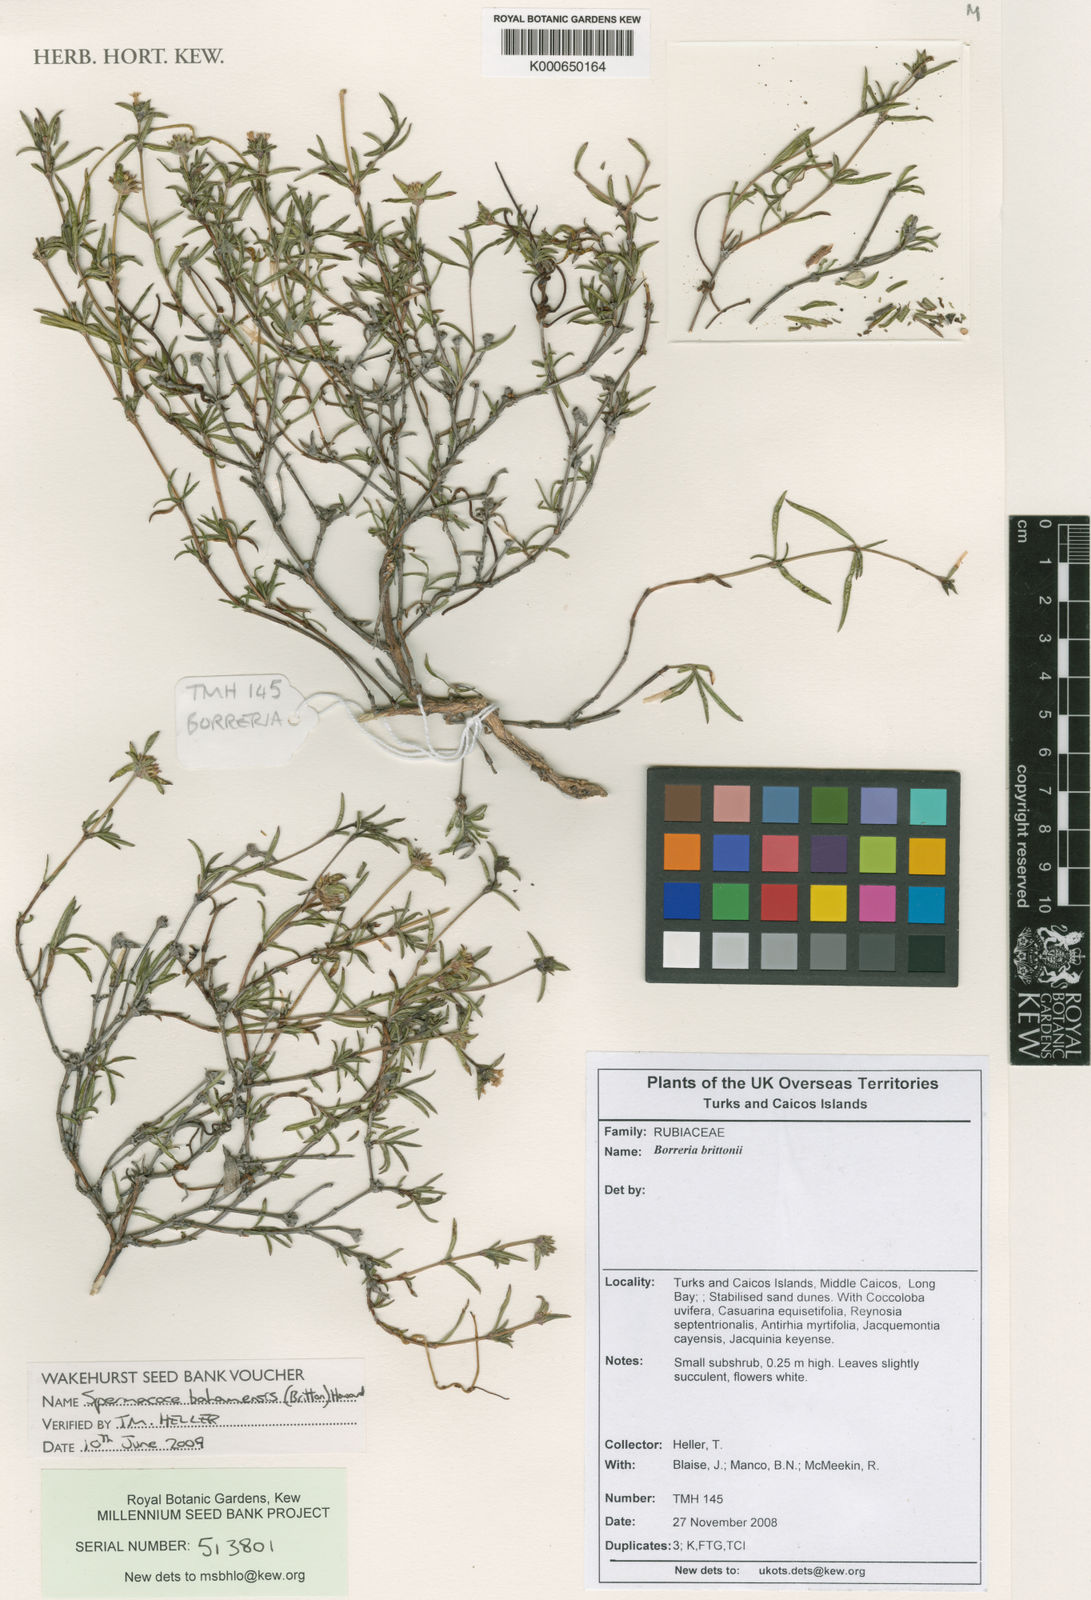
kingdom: Plantae
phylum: Tracheophyta
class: Magnoliopsida
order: Gentianales
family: Rubiaceae
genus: Spermacoce
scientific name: Spermacoce bahamensis
